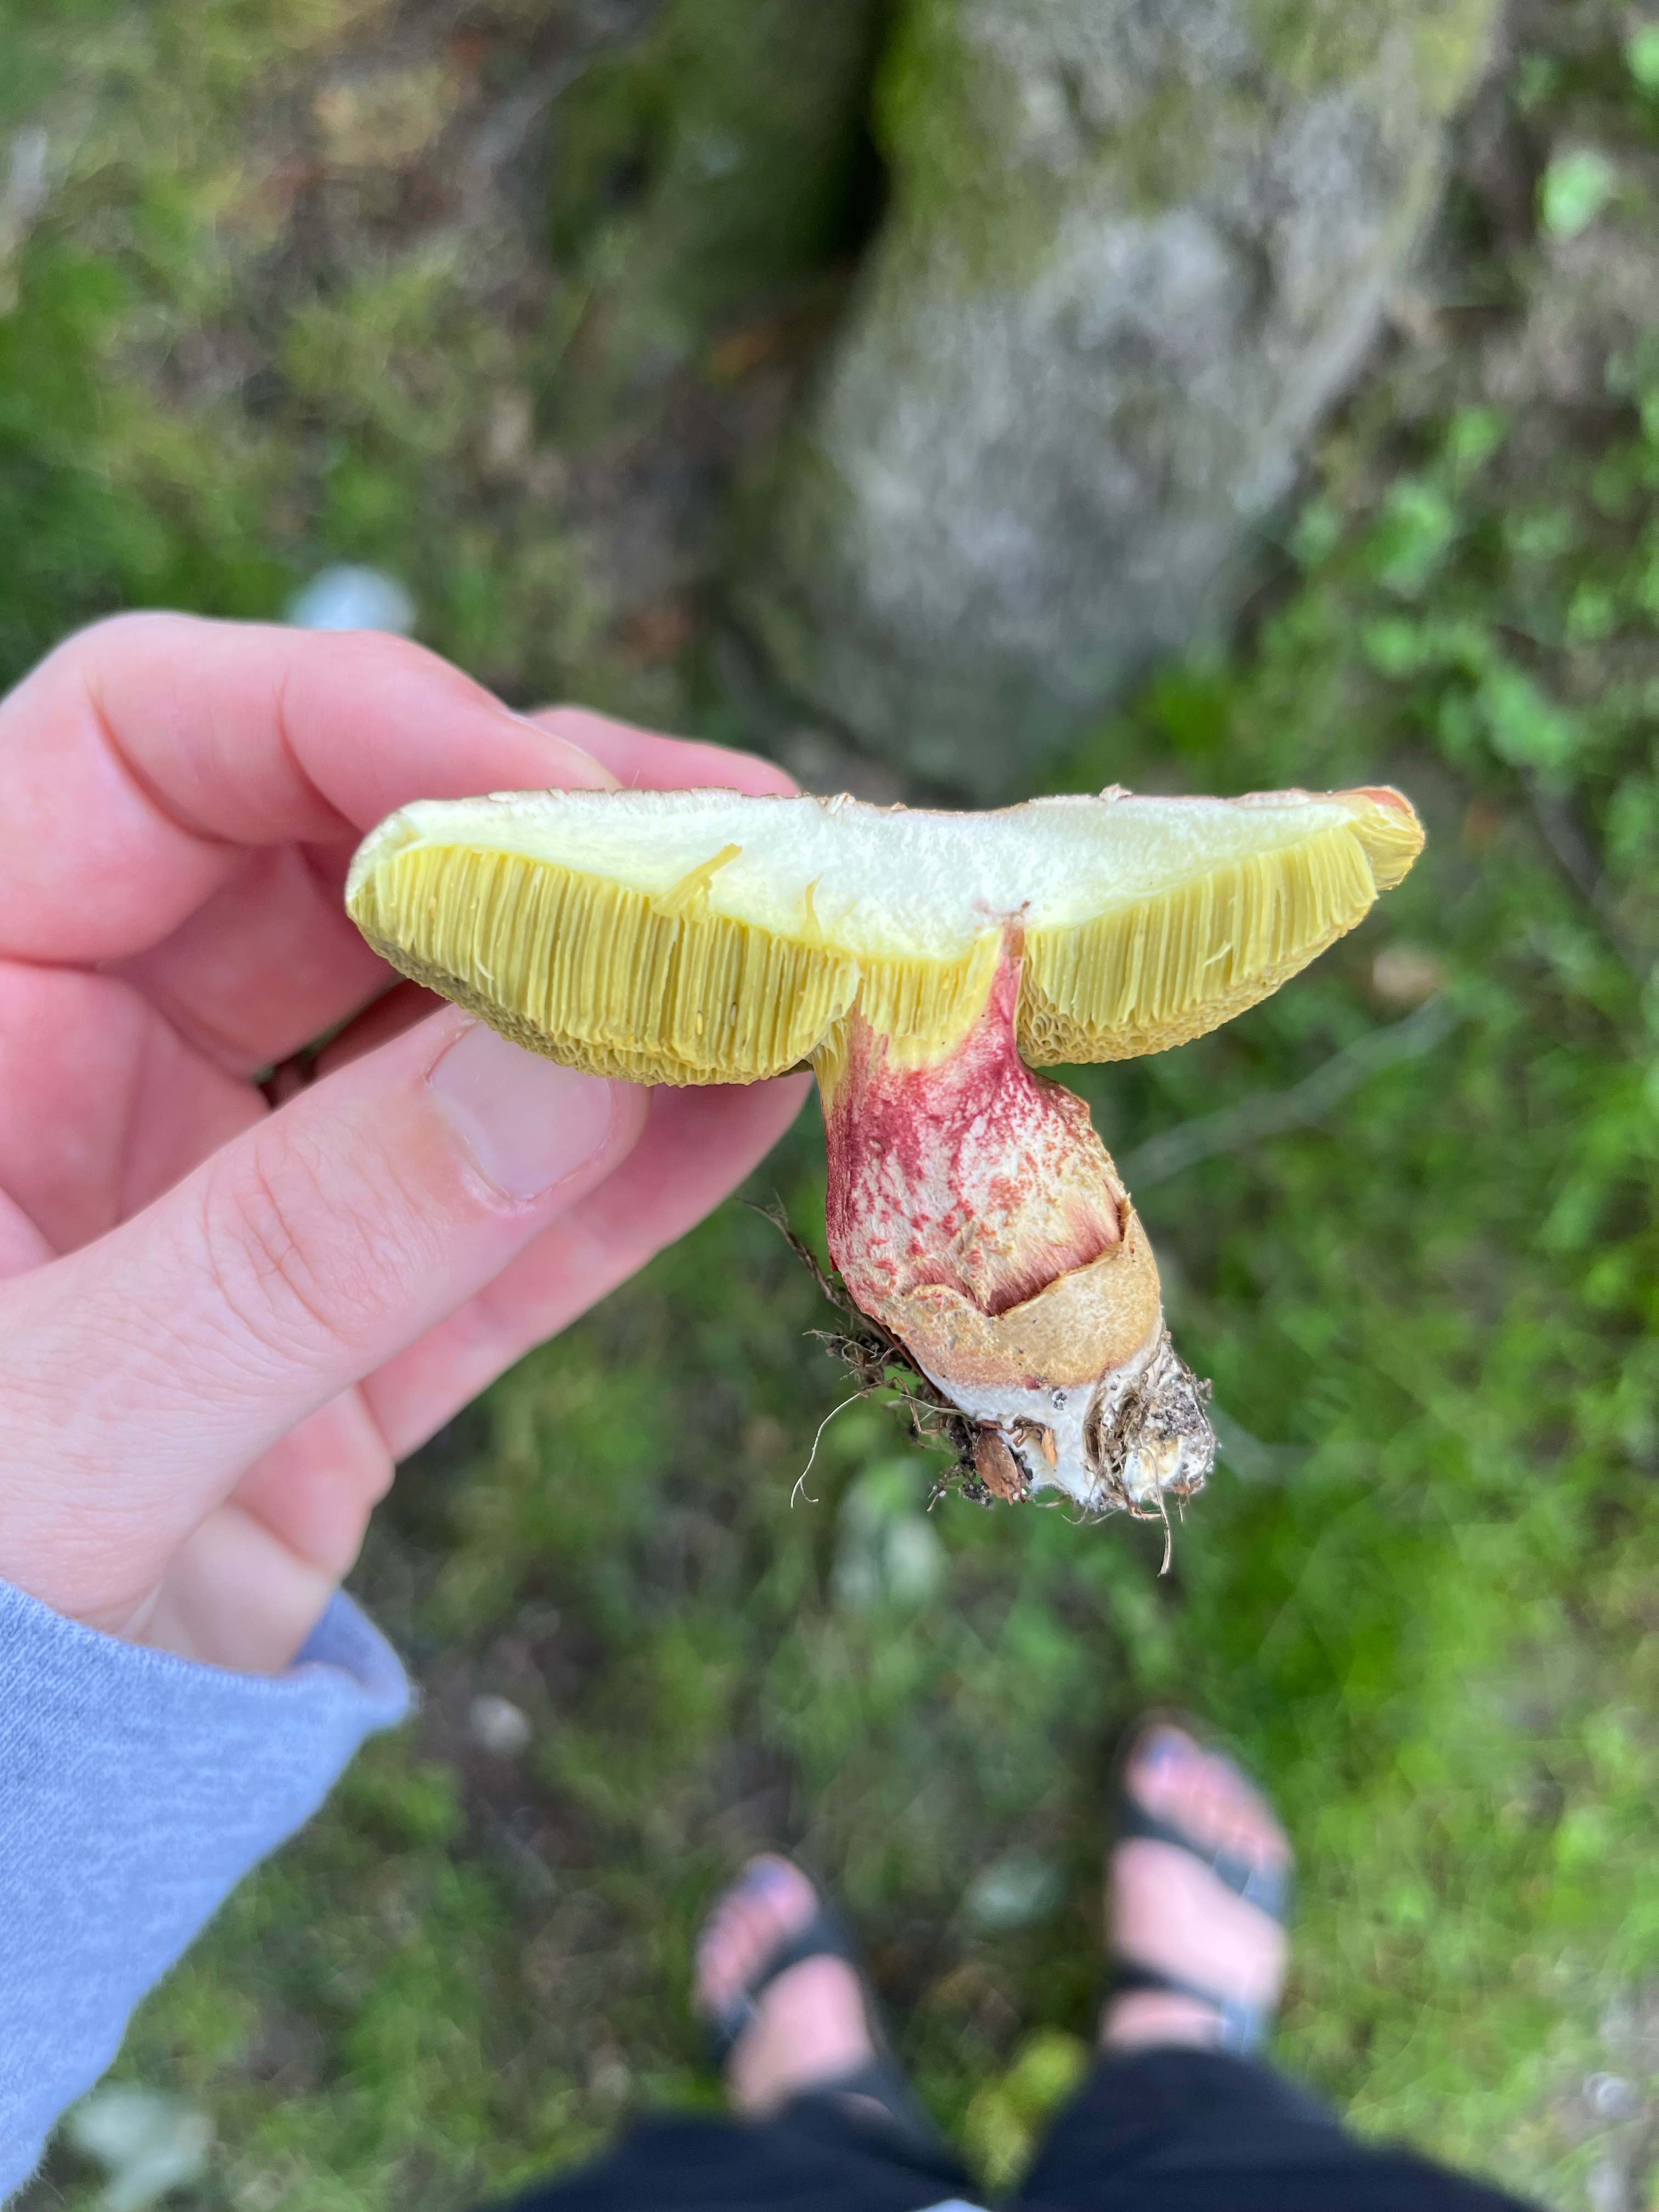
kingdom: Fungi
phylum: Basidiomycota
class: Agaricomycetes
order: Boletales
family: Boletaceae
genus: Xerocomellus
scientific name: Xerocomellus chrysenteron
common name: rødsprukken rørhat
